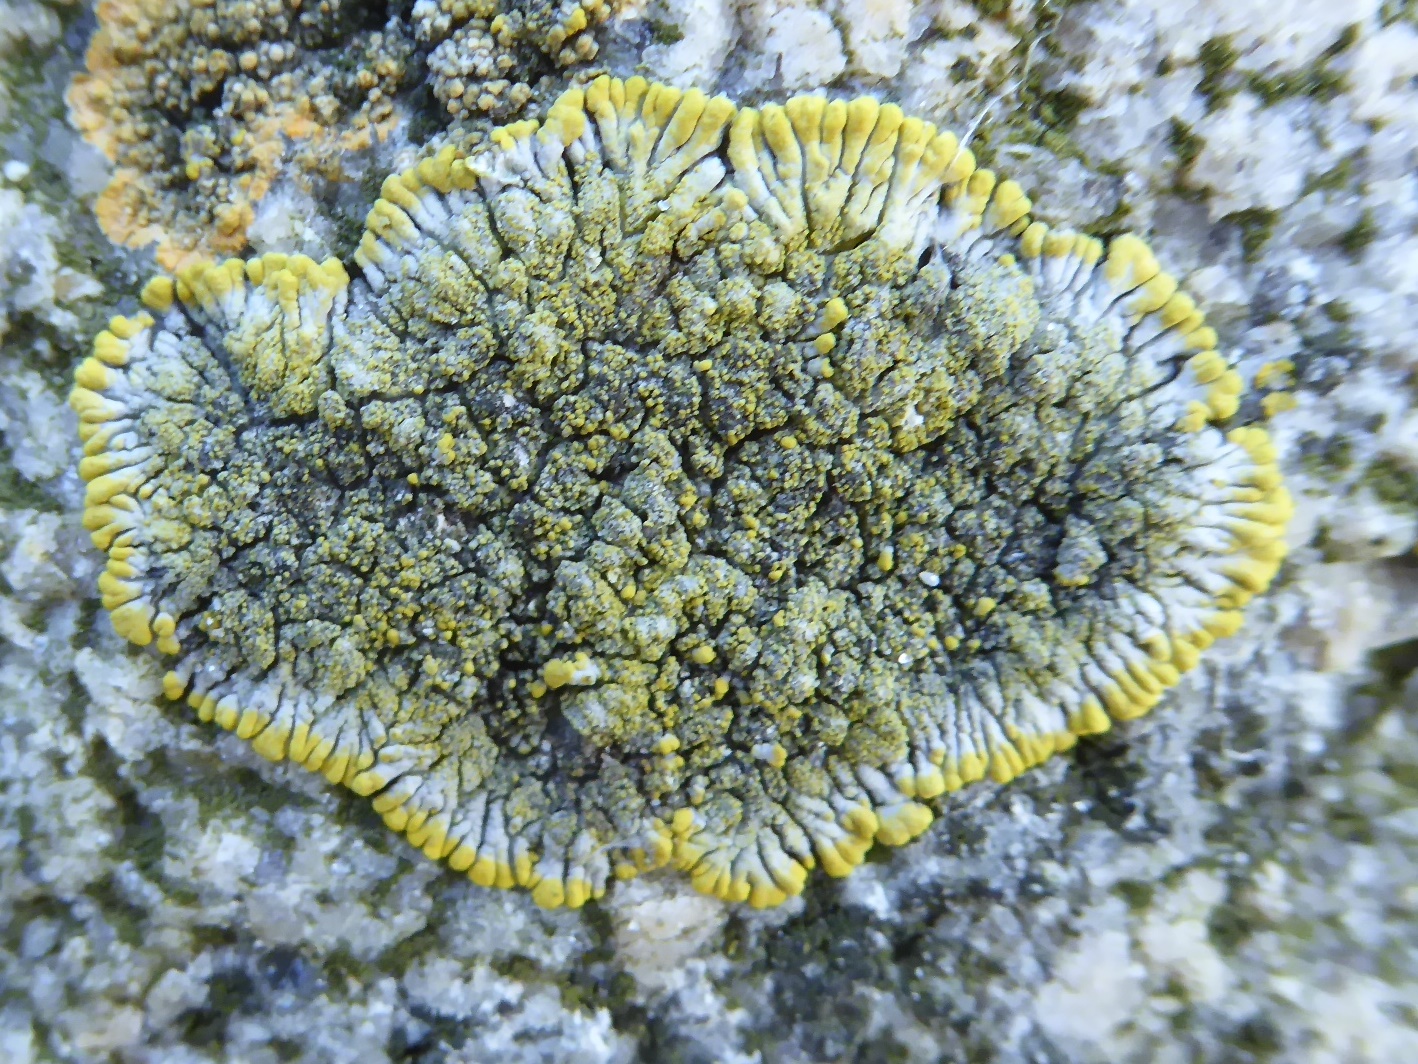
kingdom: Fungi
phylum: Ascomycota
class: Lecanoromycetes
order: Teloschistales
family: Teloschistaceae
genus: Verrucoplaca
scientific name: Verrucoplaca verruculifera
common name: koldkyst-orangelav
